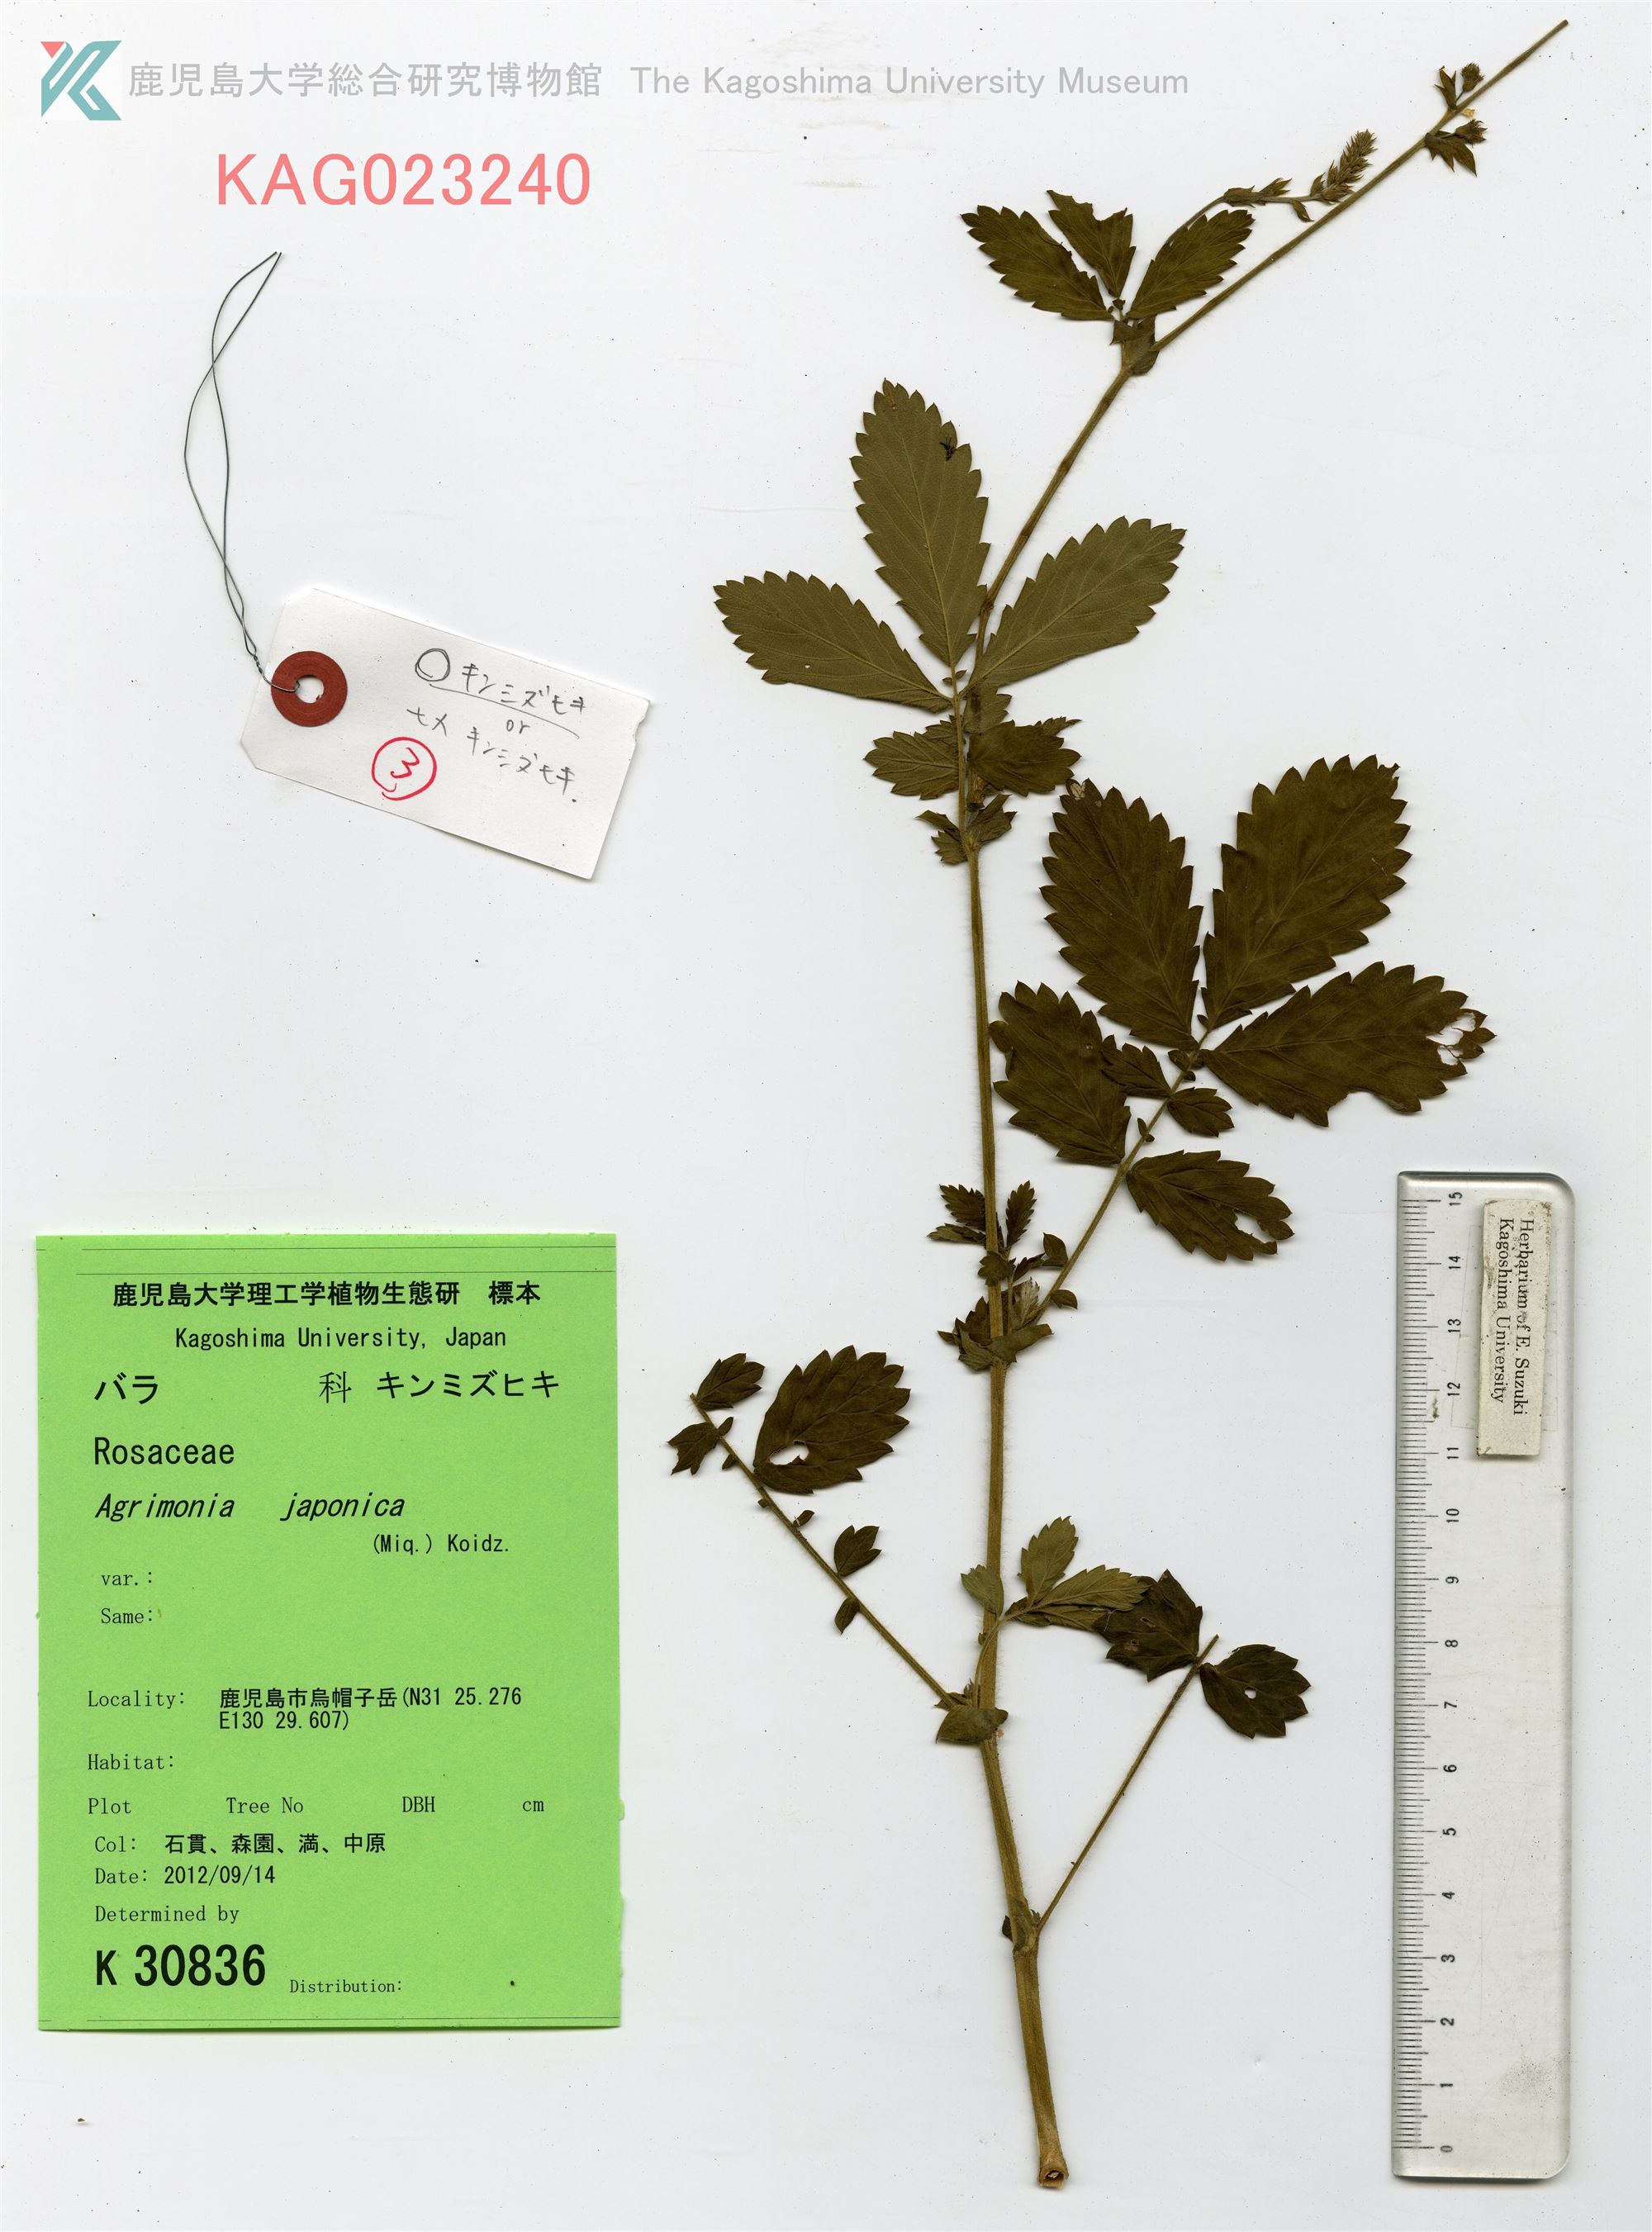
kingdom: Plantae
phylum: Tracheophyta
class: Magnoliopsida
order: Rosales
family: Rosaceae
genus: Agrimonia
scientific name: Agrimonia pilosa
